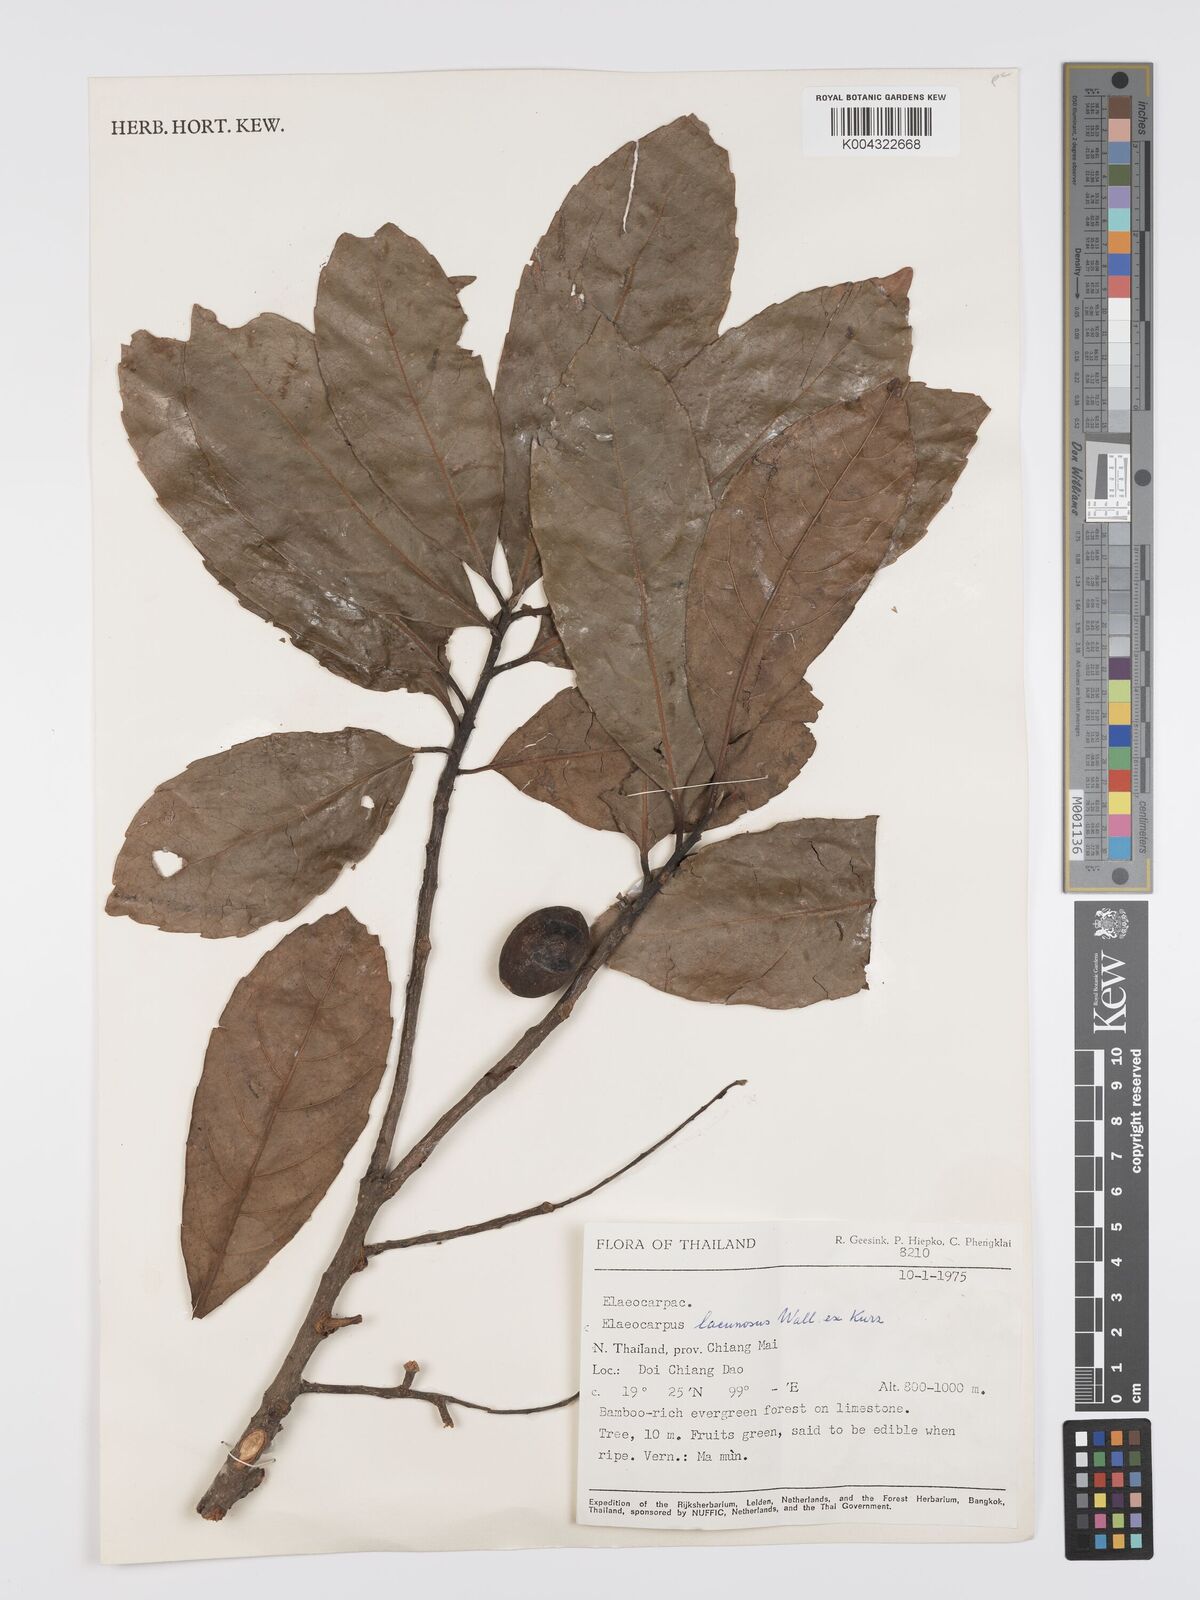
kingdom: Plantae
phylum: Tracheophyta
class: Magnoliopsida
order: Oxalidales
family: Elaeocarpaceae
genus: Elaeocarpus
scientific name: Elaeocarpus lanceifolius
